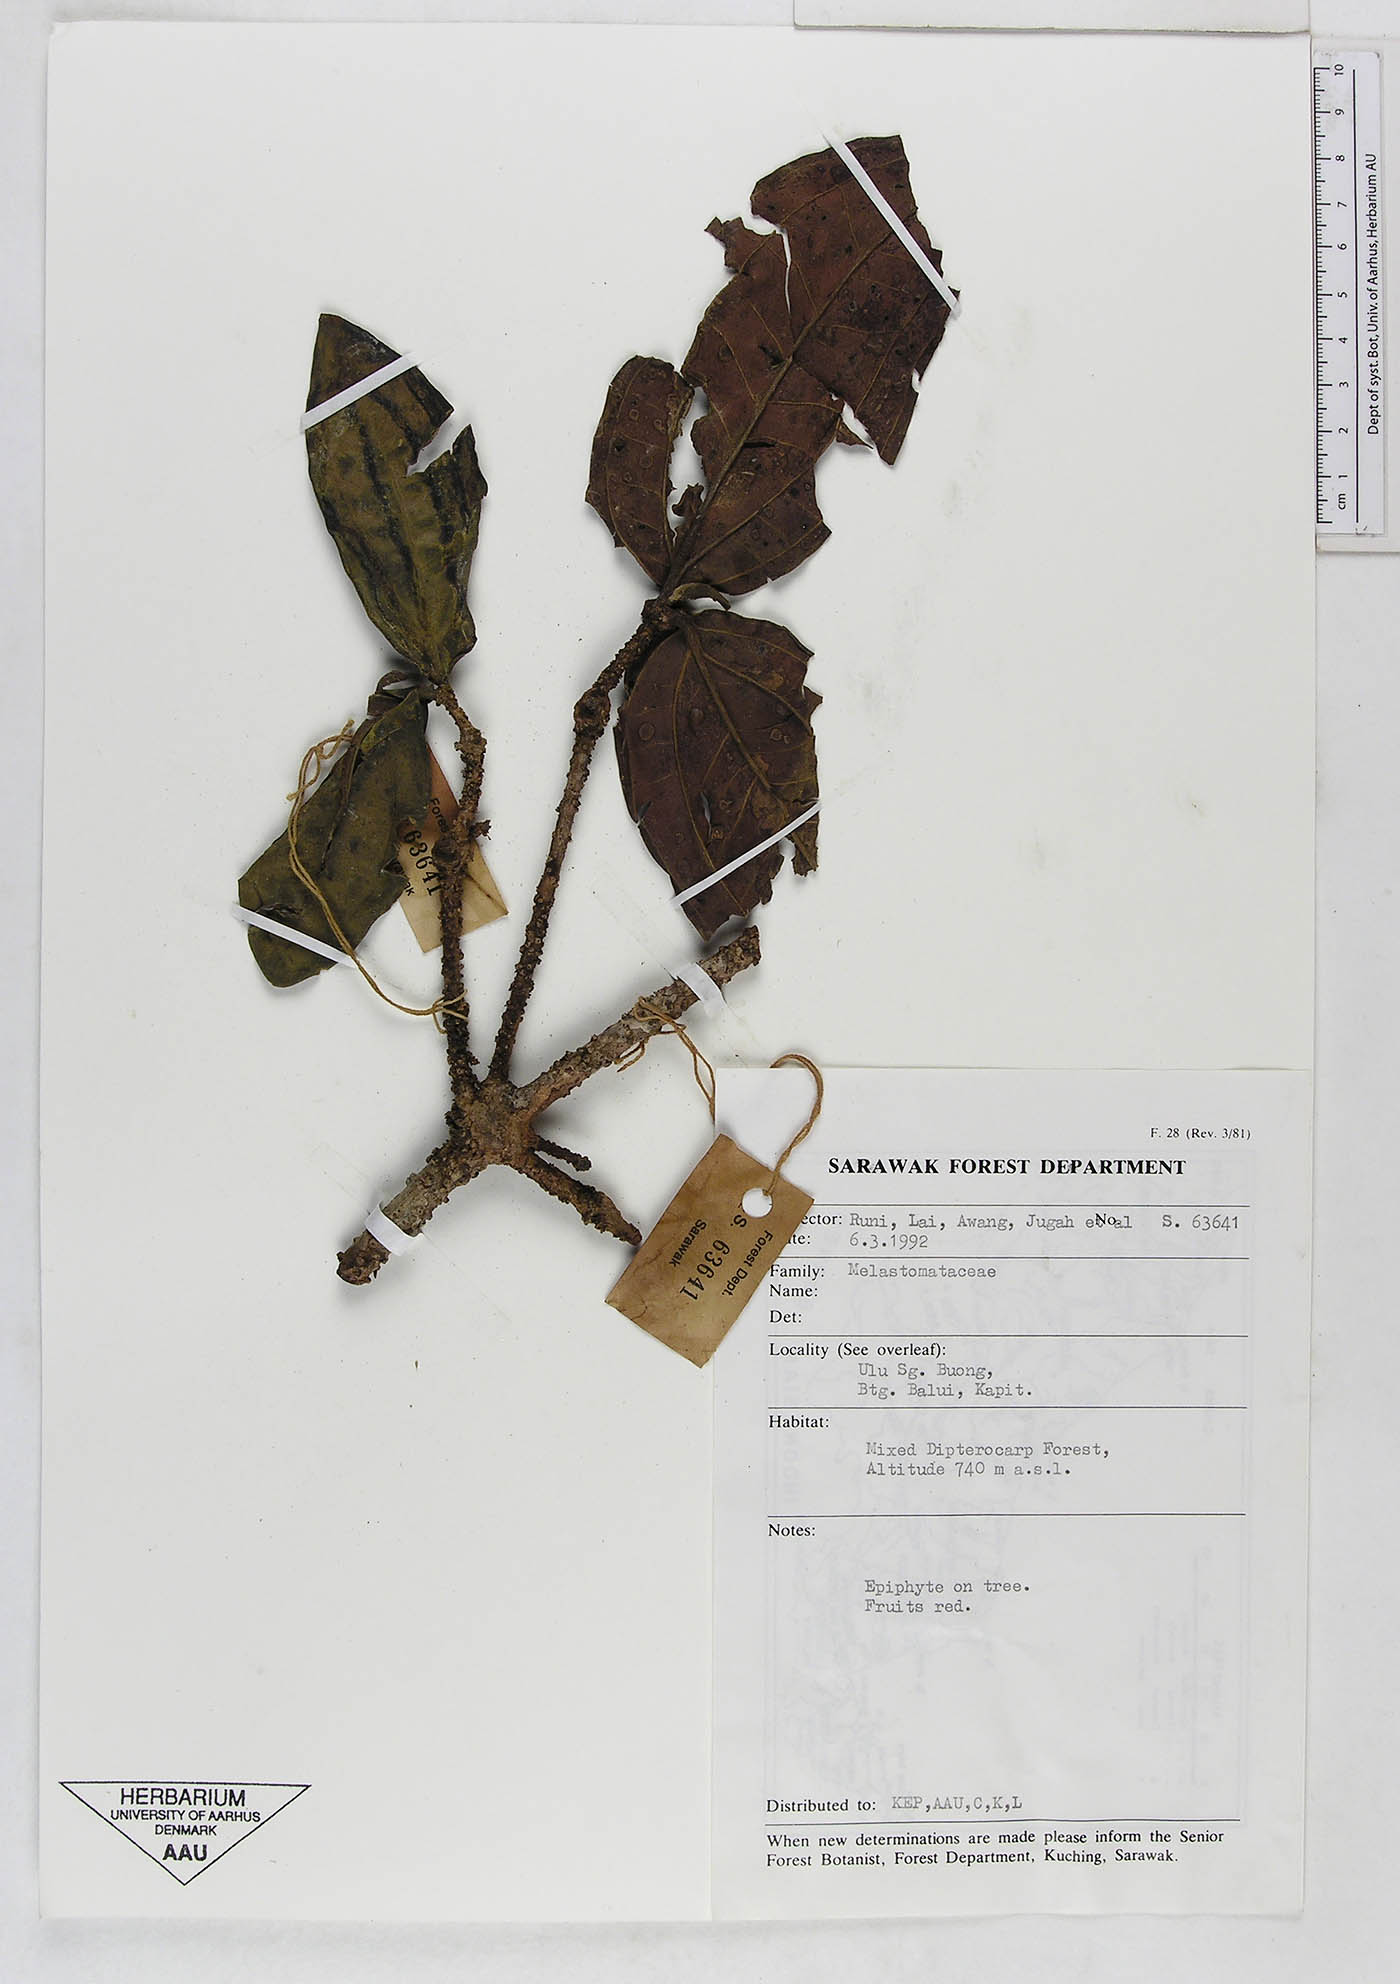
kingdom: Plantae
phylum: Tracheophyta
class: Magnoliopsida
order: Myrtales
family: Melastomataceae
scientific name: Melastomataceae
